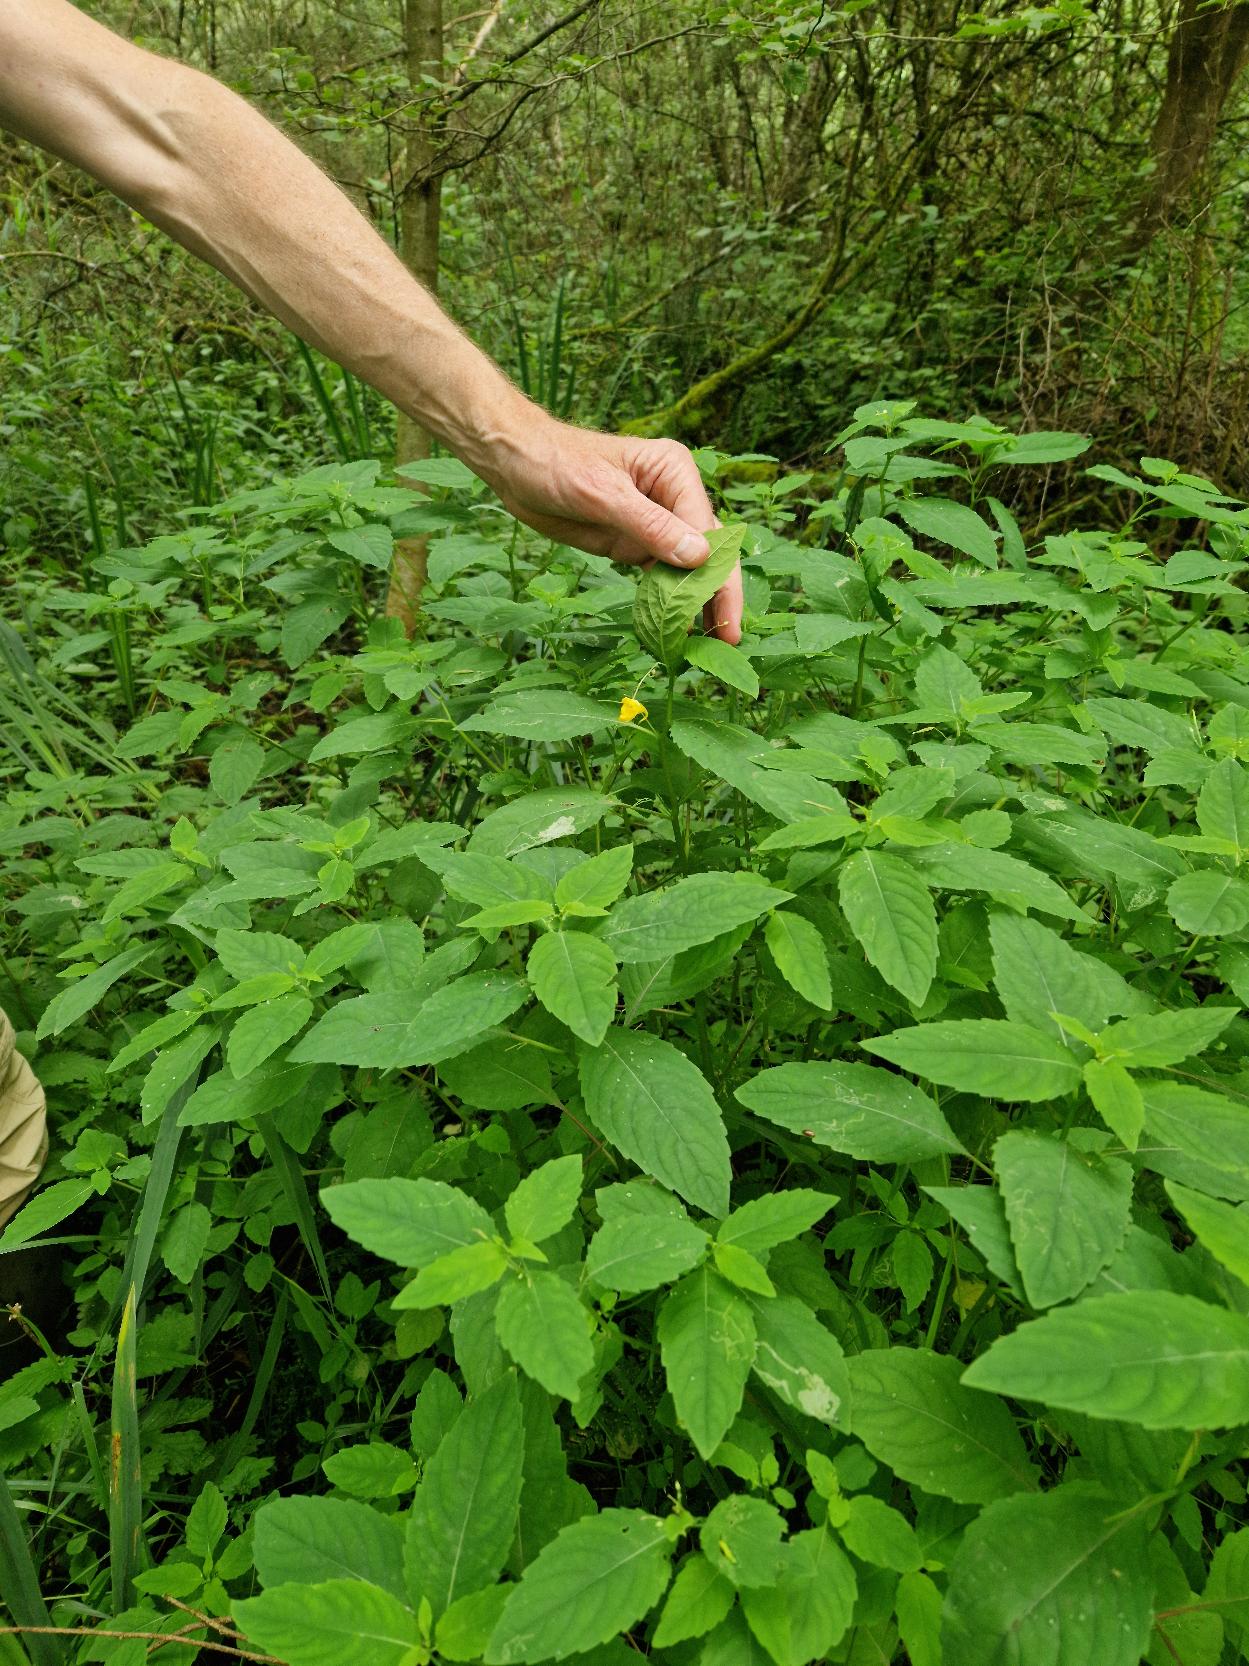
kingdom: Plantae
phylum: Tracheophyta
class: Magnoliopsida
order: Ericales
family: Balsaminaceae
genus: Impatiens
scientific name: Impatiens noli-tangere
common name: Spring-balsamin
